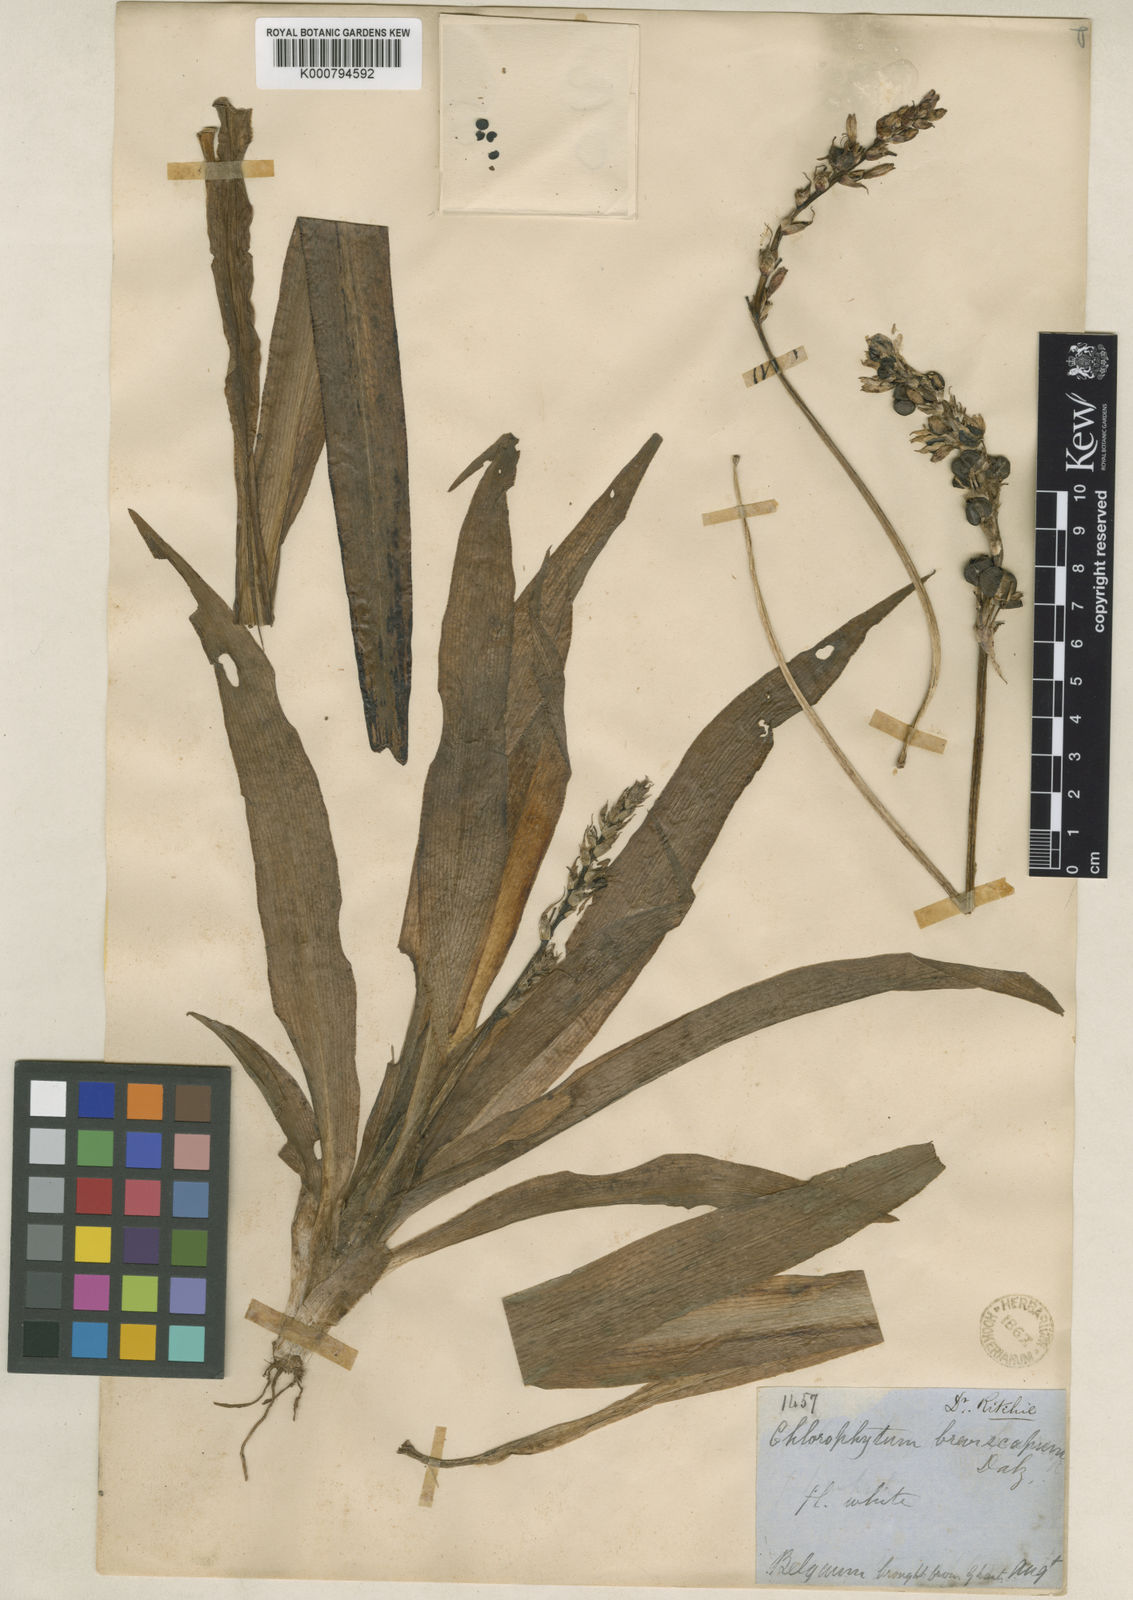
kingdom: Plantae
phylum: Tracheophyta
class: Liliopsida
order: Asparagales
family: Asparagaceae
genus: Chlorophytum
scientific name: Chlorophytum breviscapum
